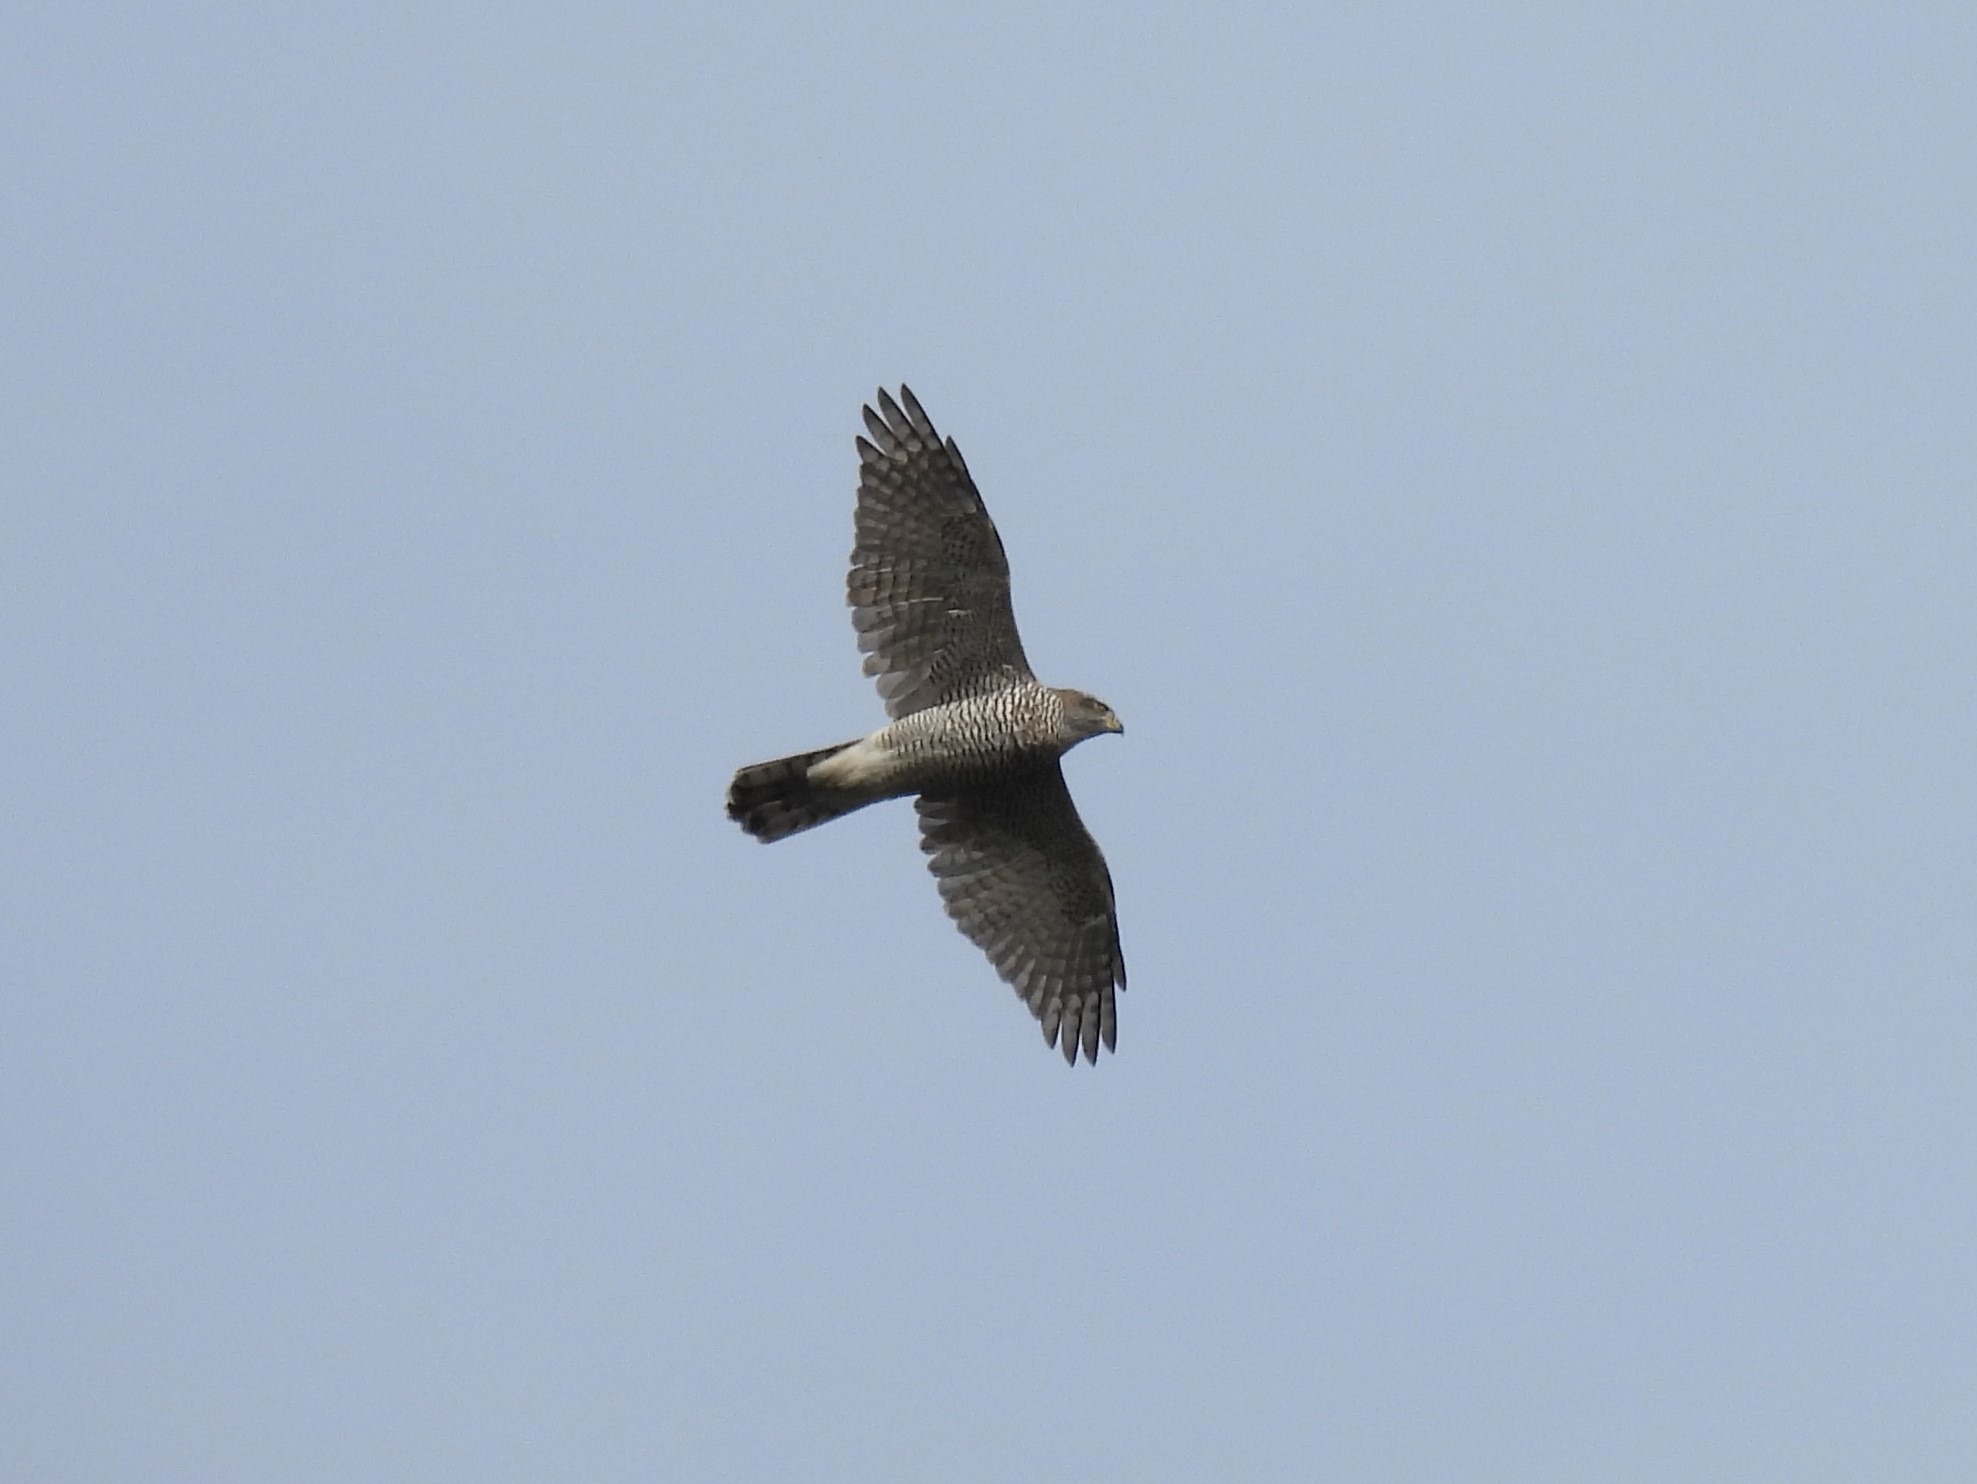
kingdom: Animalia
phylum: Chordata
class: Aves
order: Accipitriformes
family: Accipitridae
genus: Accipiter
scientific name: Accipiter gentilis
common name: Duehøg
